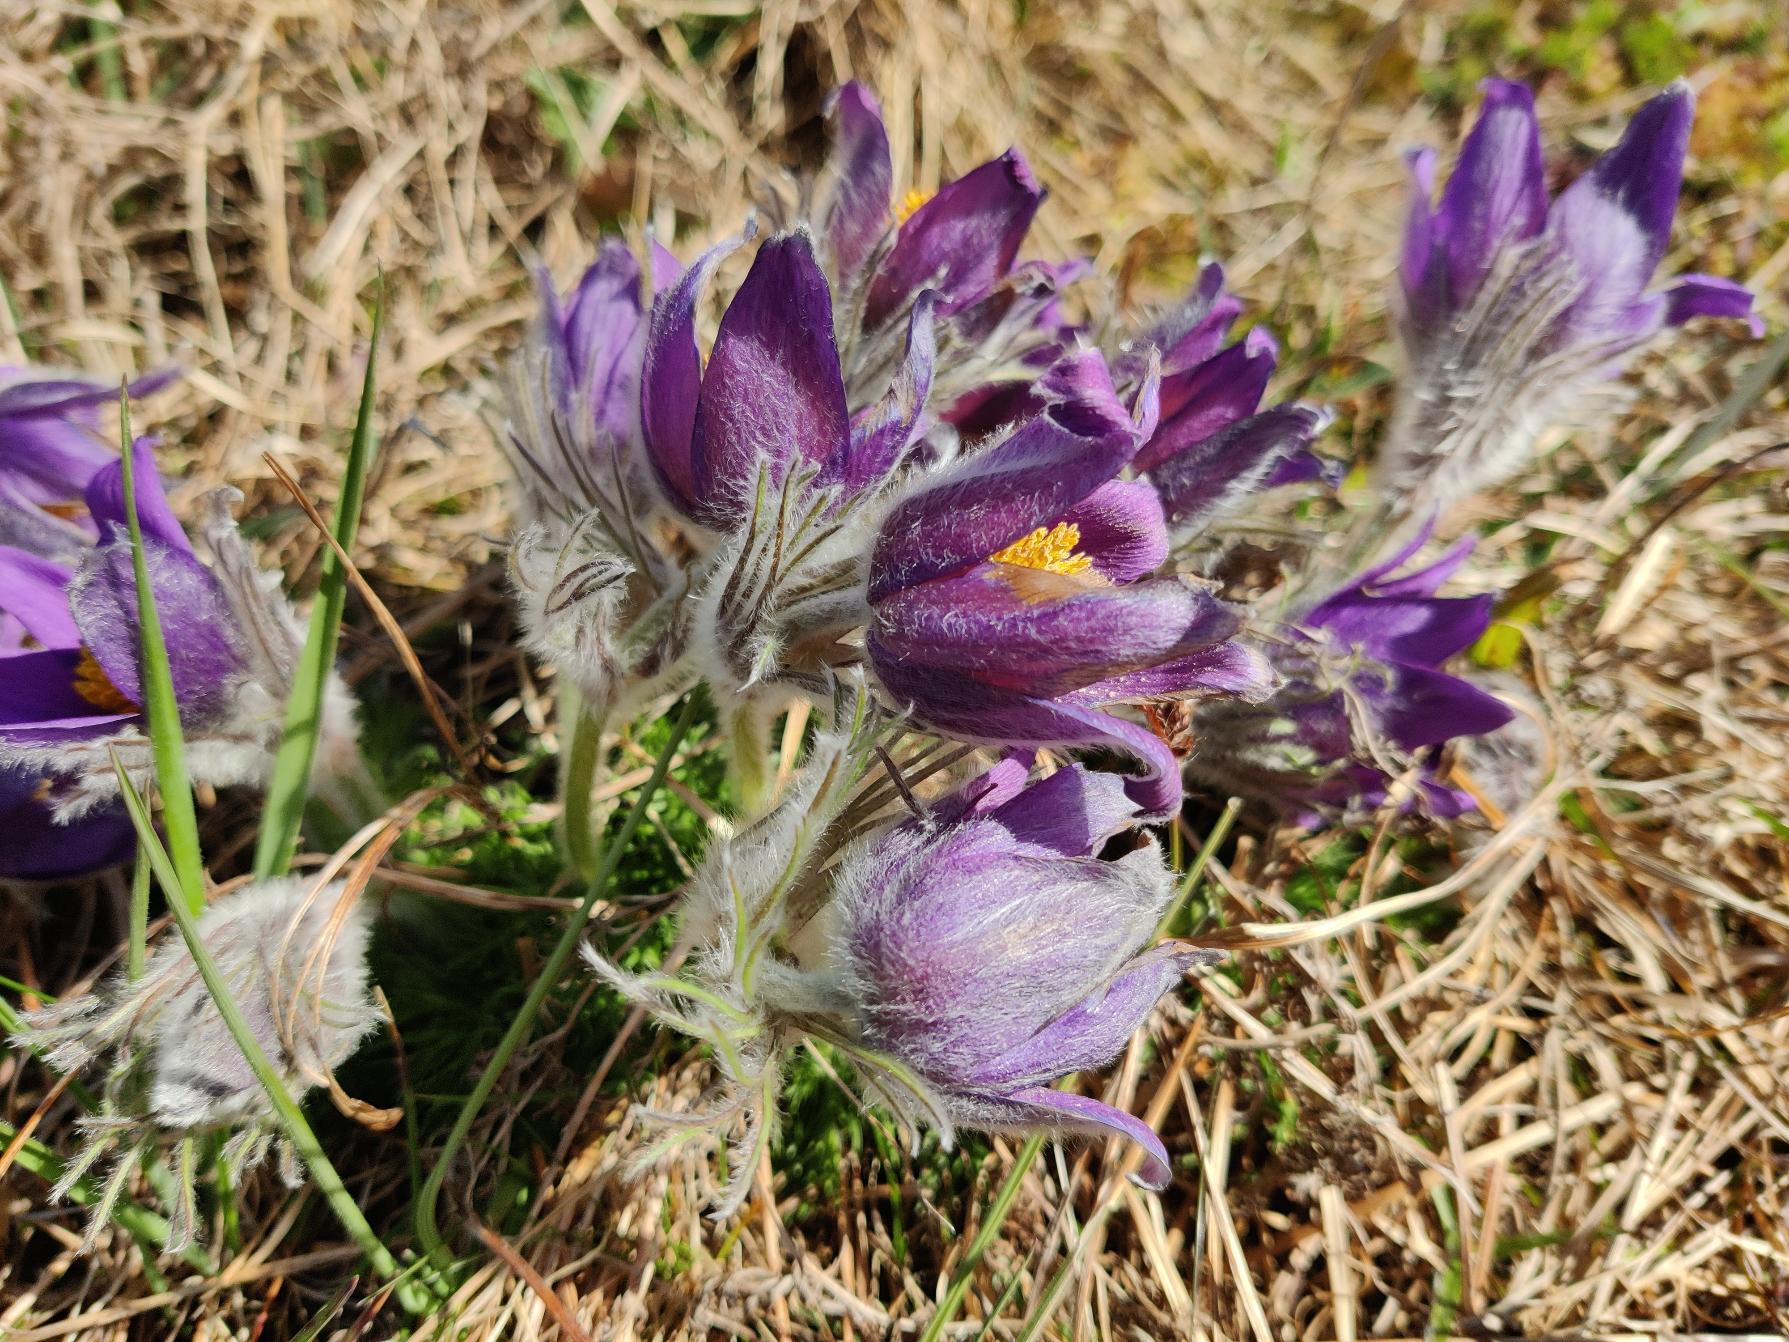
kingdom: Plantae
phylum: Tracheophyta
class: Magnoliopsida
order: Ranunculales
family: Ranunculaceae
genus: Pulsatilla
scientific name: Pulsatilla vulgaris
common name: Opret kobjælde
